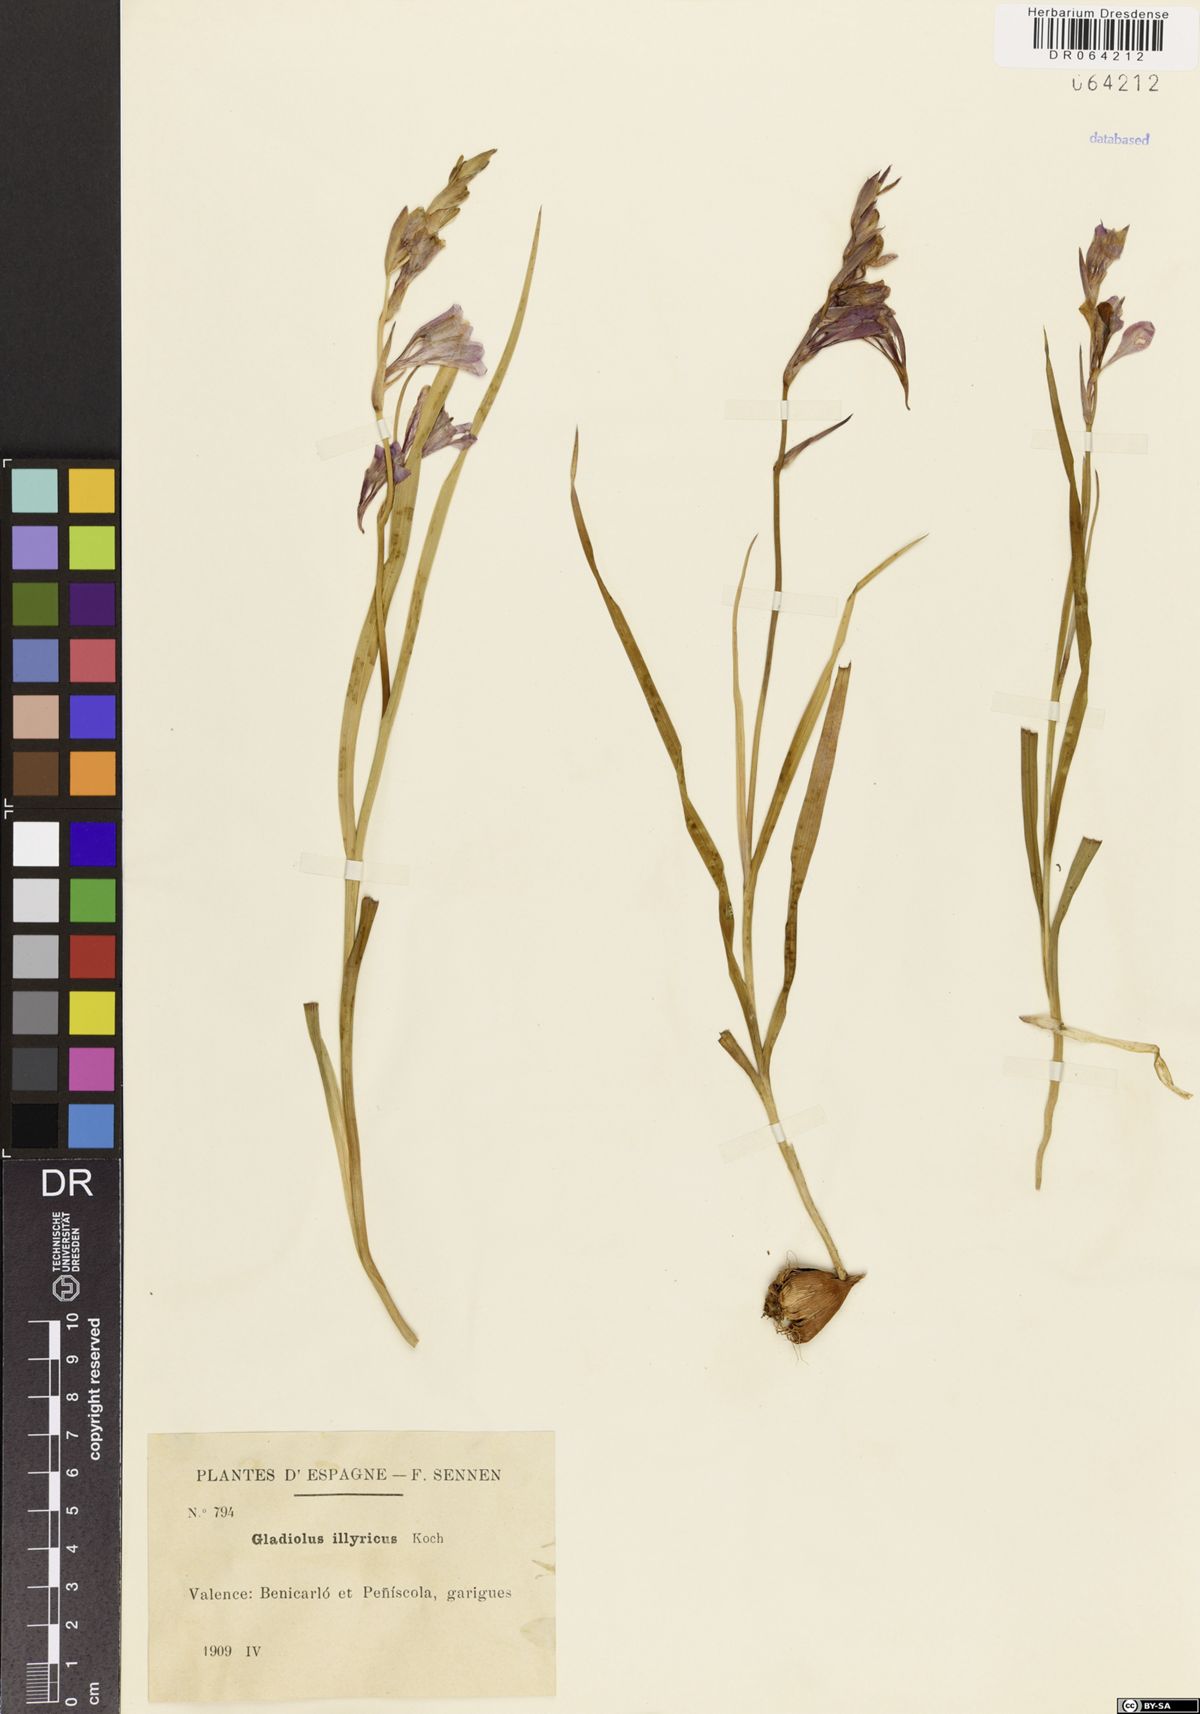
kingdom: Plantae
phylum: Tracheophyta
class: Liliopsida
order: Asparagales
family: Iridaceae
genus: Gladiolus
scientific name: Gladiolus illyricus
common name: Wild gladiolus
